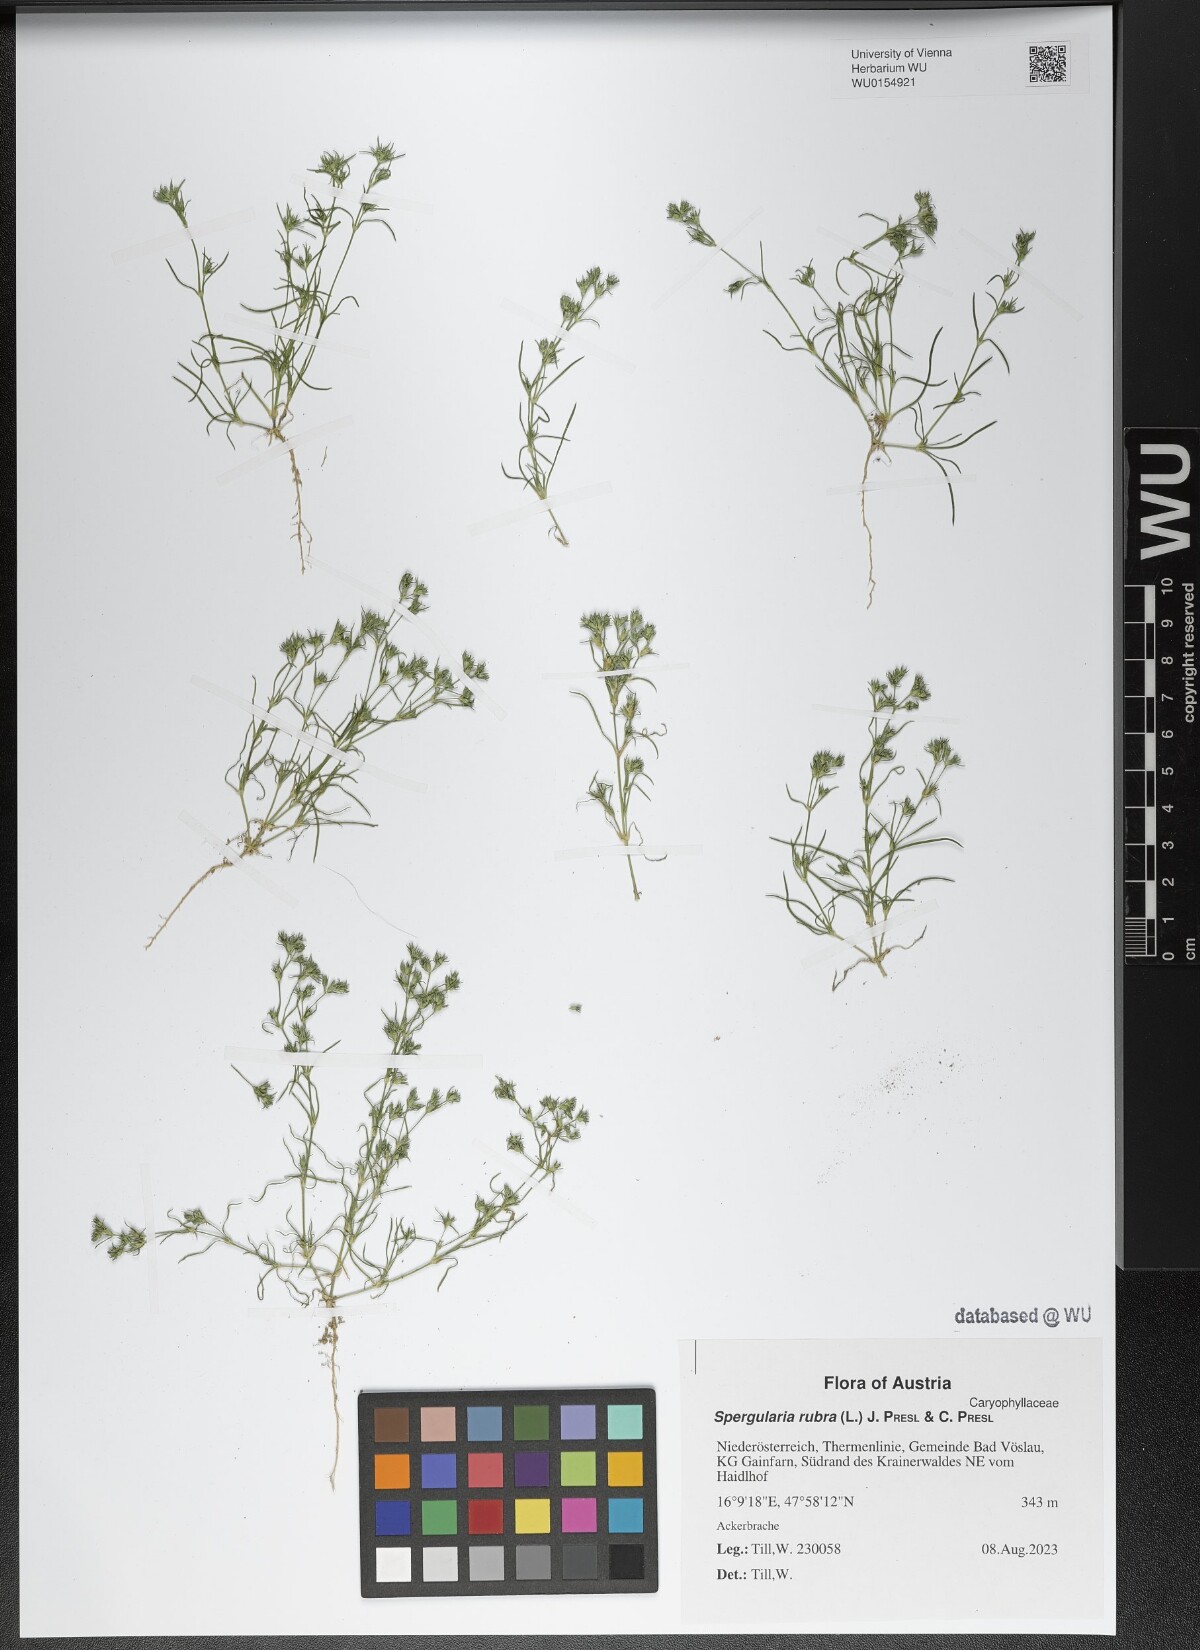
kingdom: Plantae
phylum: Tracheophyta
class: Magnoliopsida
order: Caryophyllales
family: Caryophyllaceae
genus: Spergularia
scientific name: Spergularia rubra
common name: Red sand-spurrey
